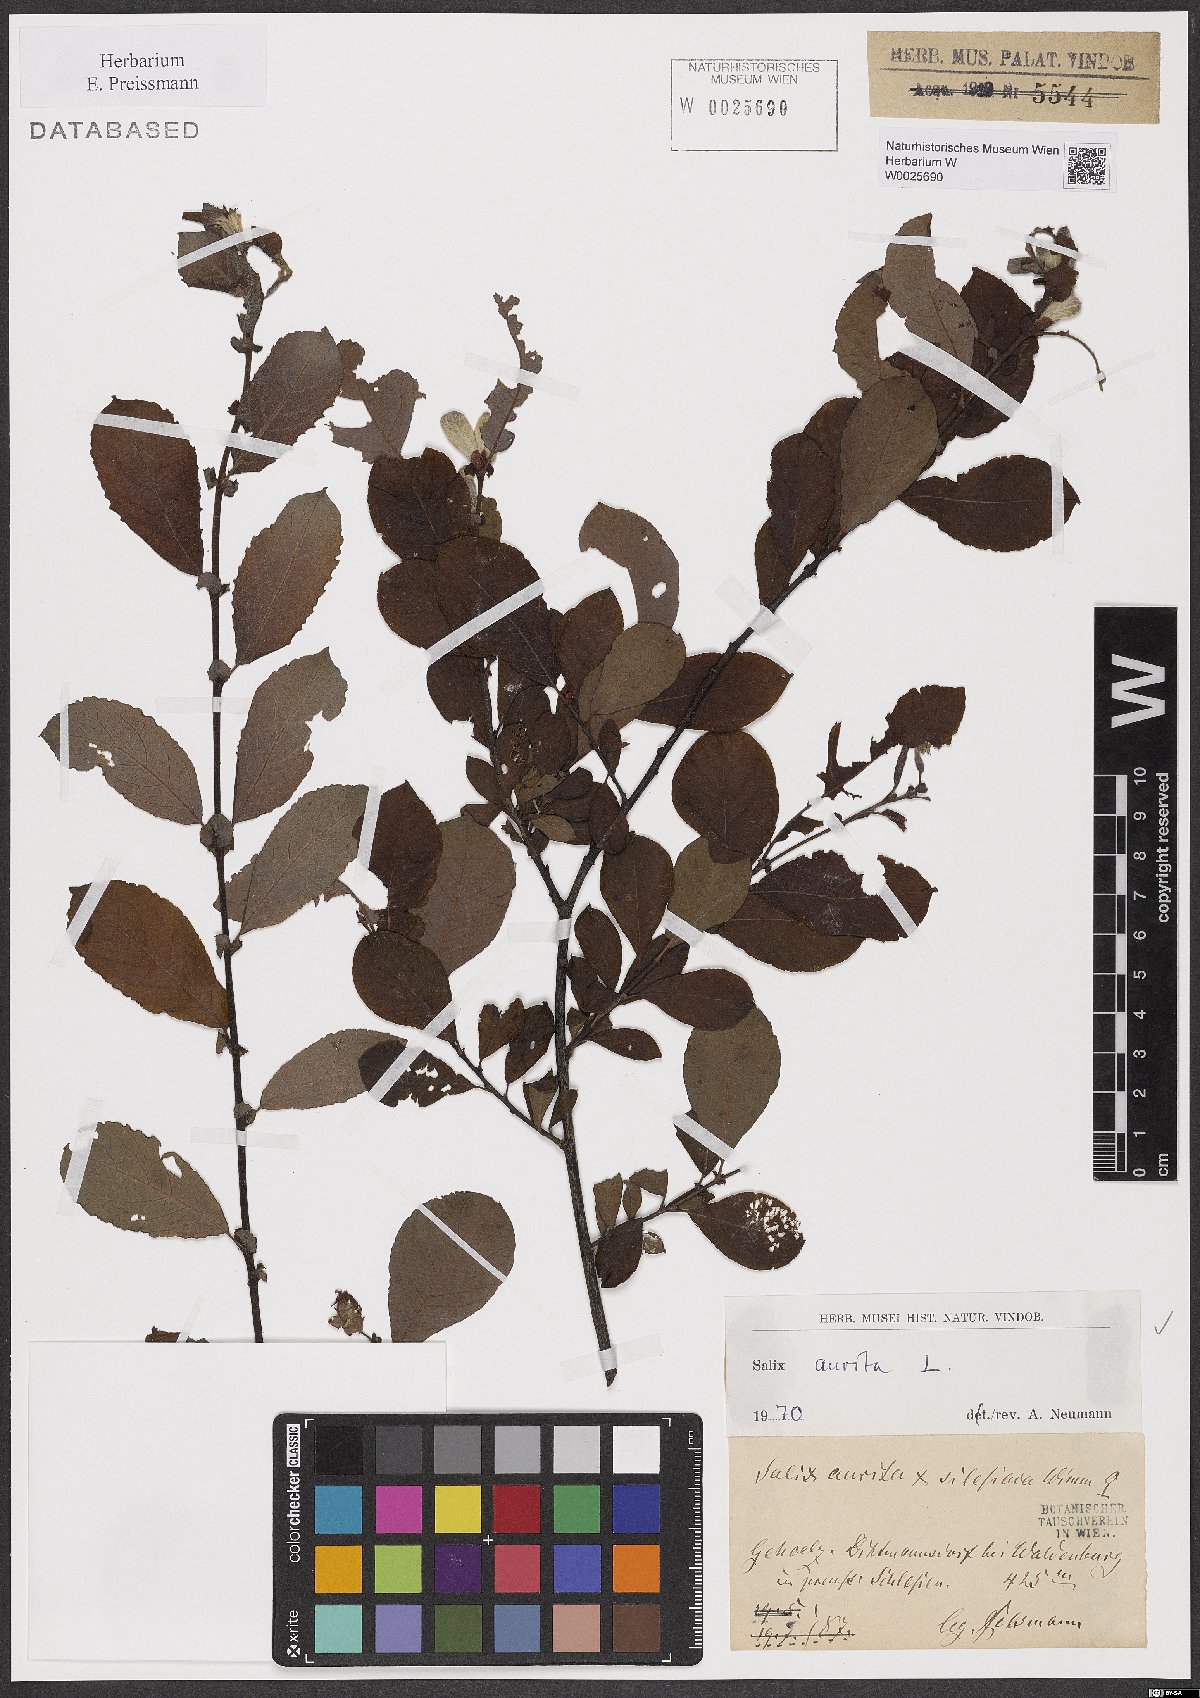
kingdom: Plantae
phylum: Tracheophyta
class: Magnoliopsida
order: Malpighiales
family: Salicaceae
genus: Salix
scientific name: Salix aurita
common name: Eared willow
